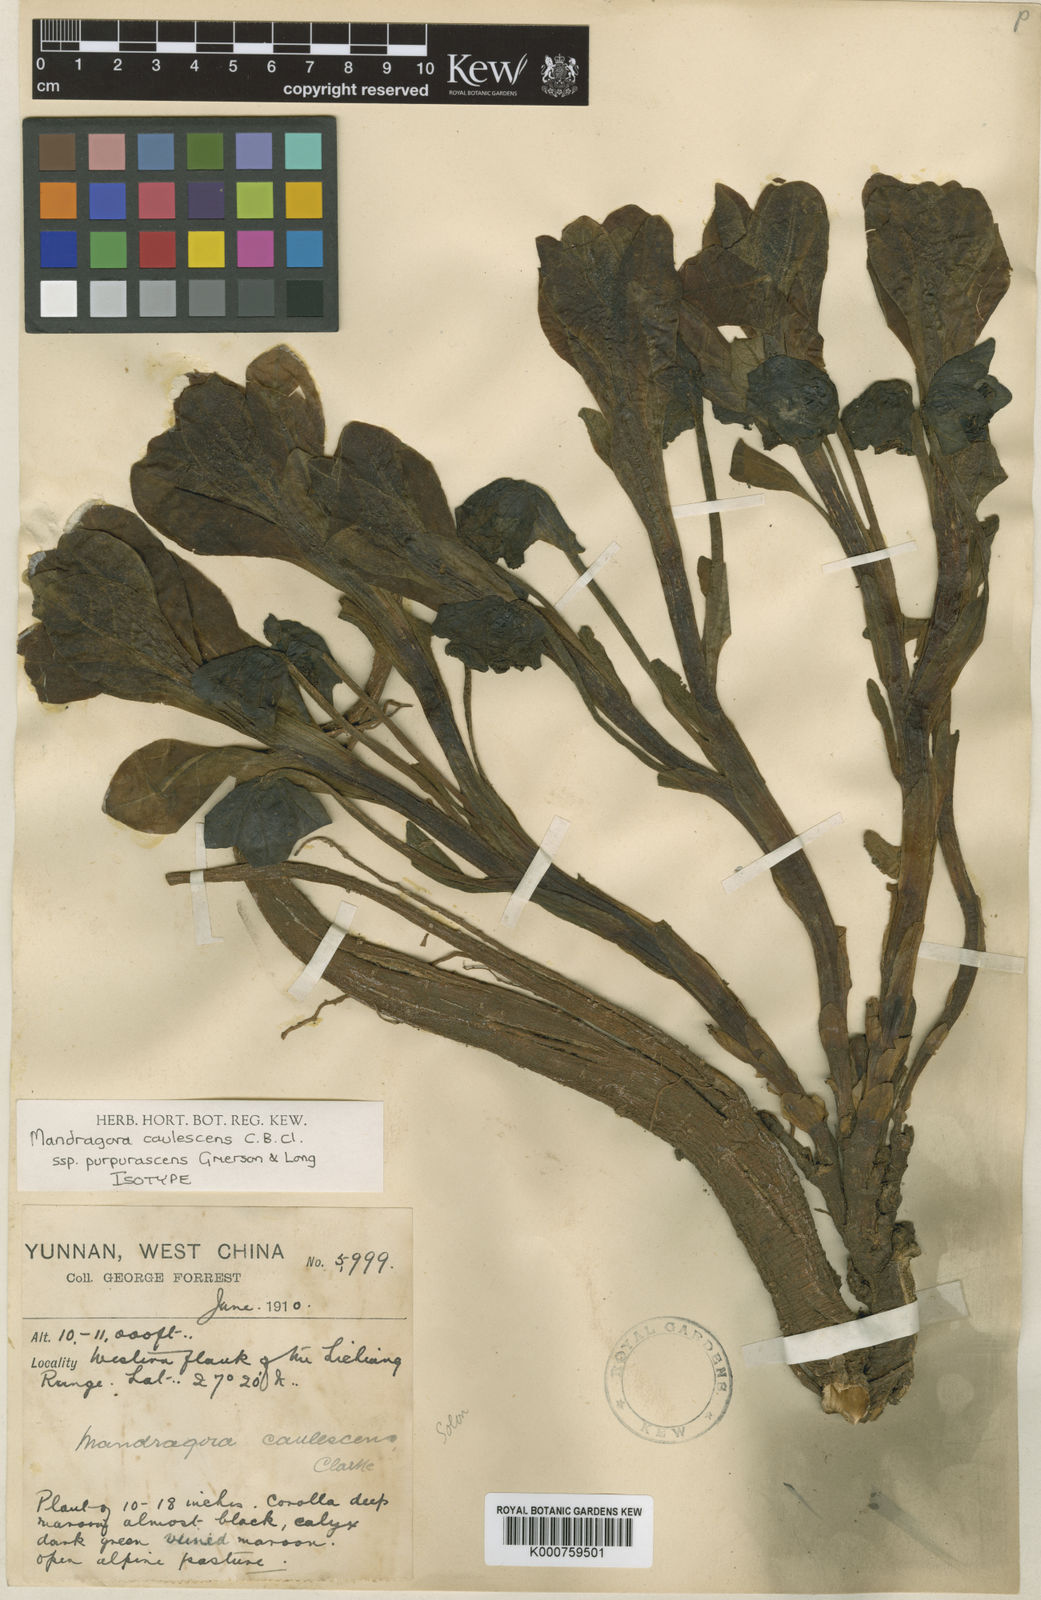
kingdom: Plantae
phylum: Tracheophyta
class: Magnoliopsida
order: Solanales
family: Solanaceae
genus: Mandragora
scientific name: Mandragora caulescens
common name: Himalayan mandrake
